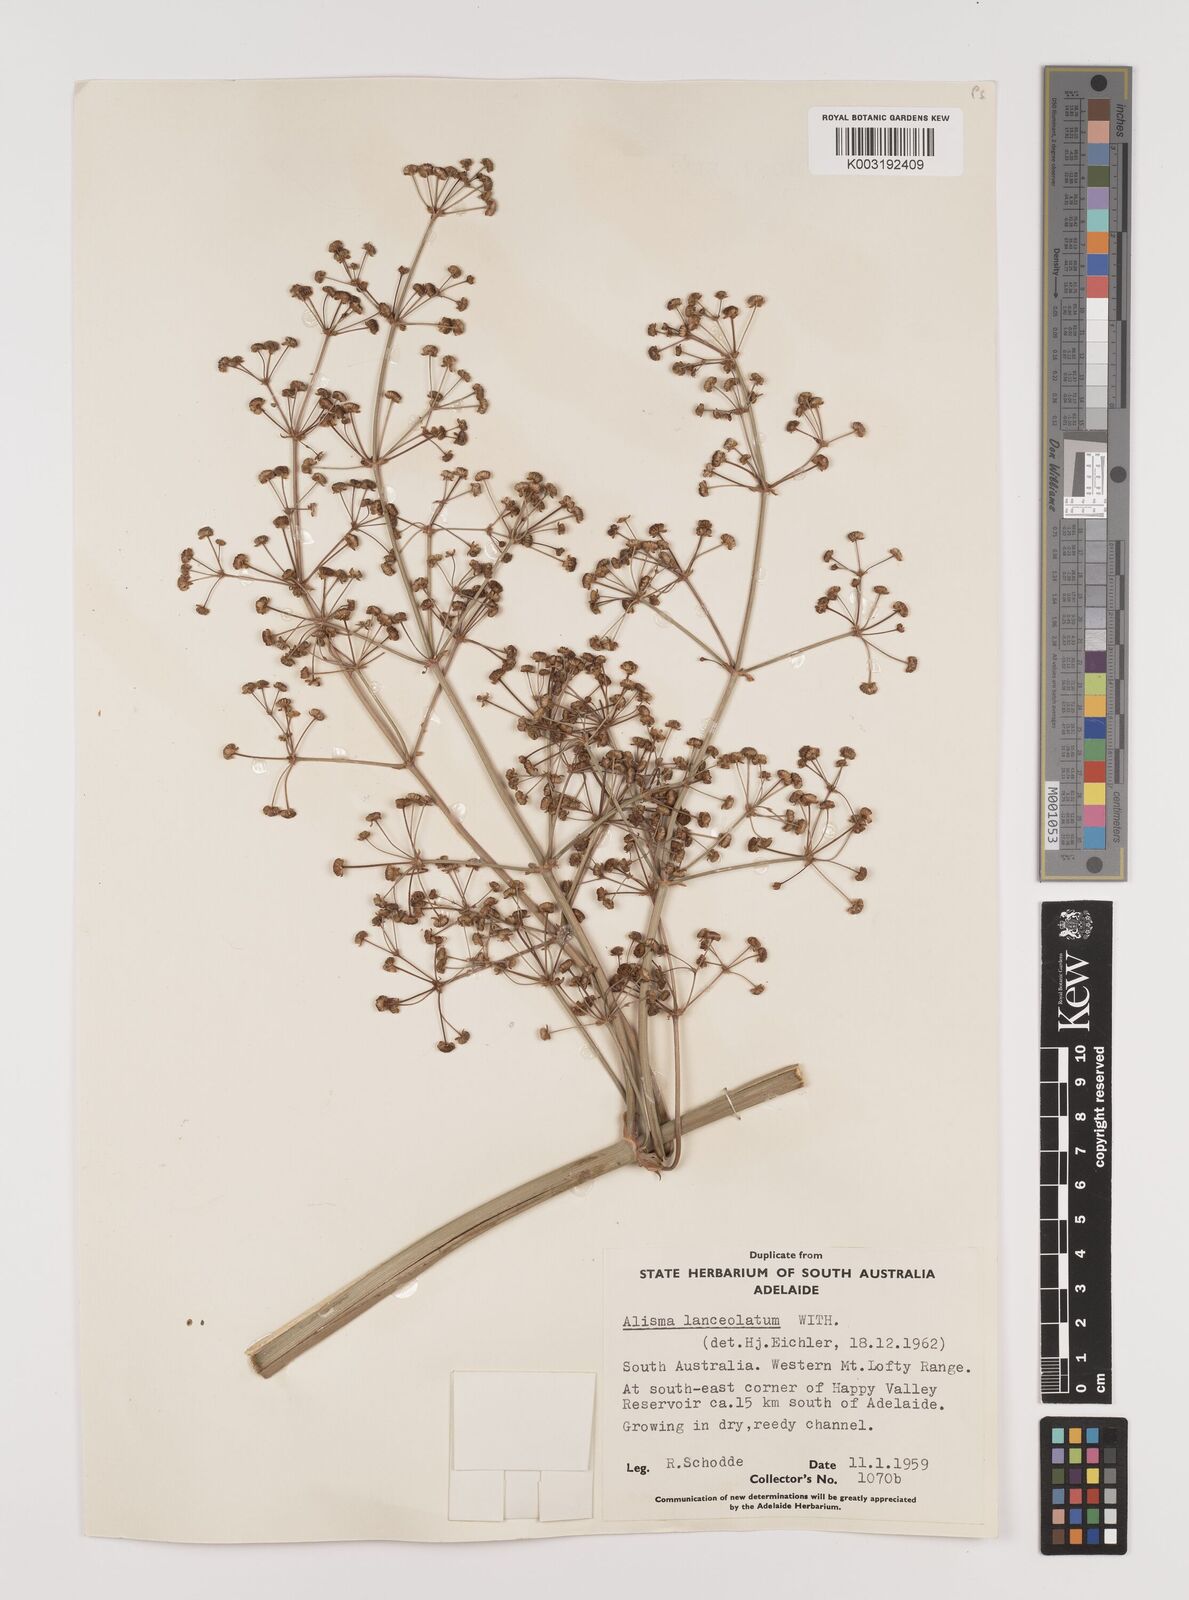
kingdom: Plantae
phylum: Tracheophyta
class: Liliopsida
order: Alismatales
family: Alismataceae
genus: Alisma
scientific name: Alisma lanceolatum
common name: Narrow-leaved water-plantain
